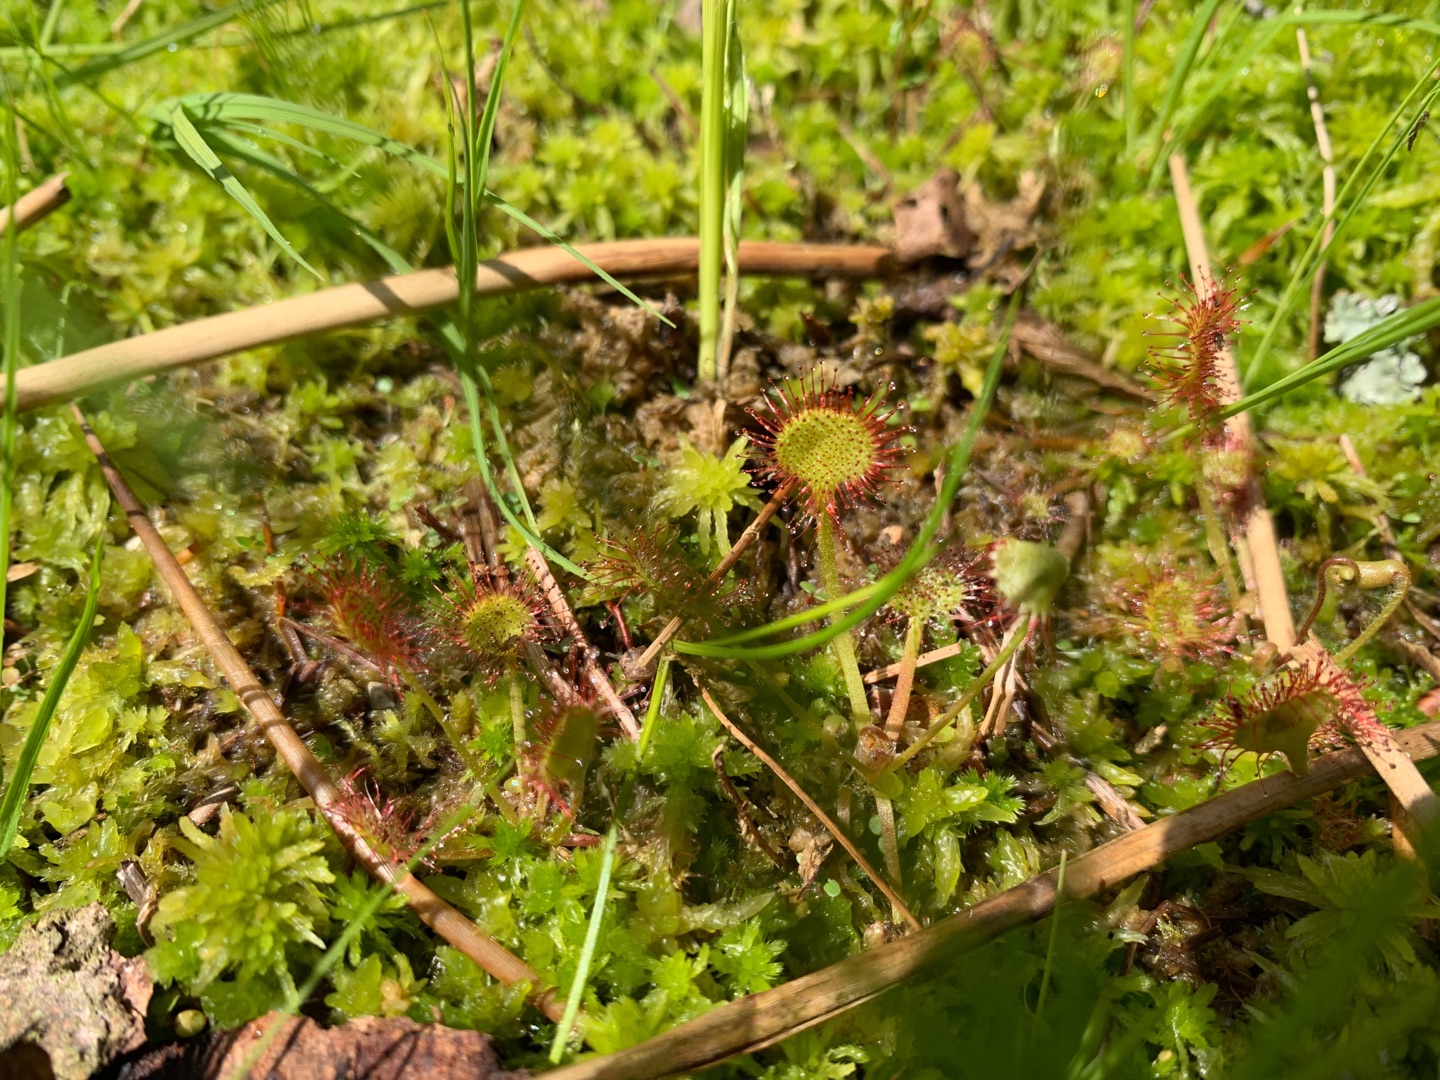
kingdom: Plantae
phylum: Tracheophyta
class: Magnoliopsida
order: Caryophyllales
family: Droseraceae
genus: Drosera
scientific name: Drosera rotundifolia
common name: Rundbladet soldug
